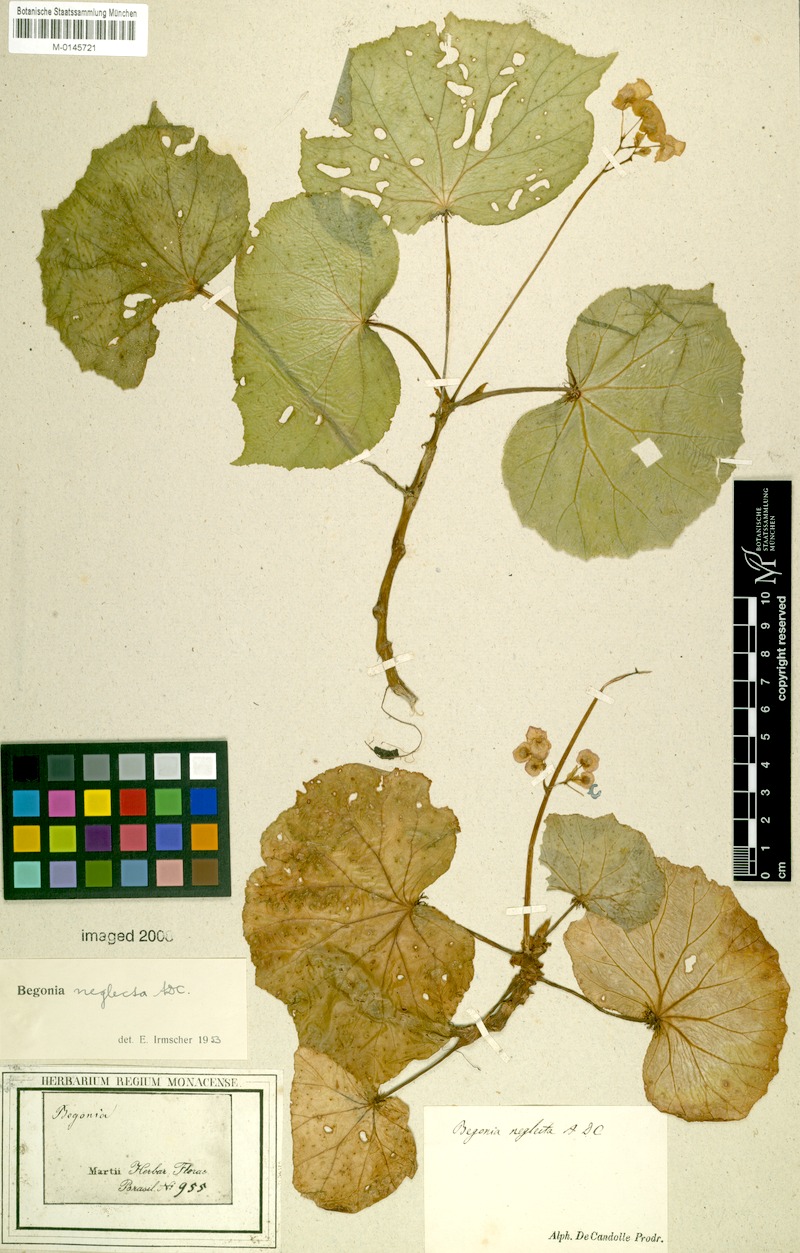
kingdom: Plantae
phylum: Tracheophyta
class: Magnoliopsida
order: Cucurbitales
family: Begoniaceae
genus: Begonia
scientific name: Begonia neglecta
